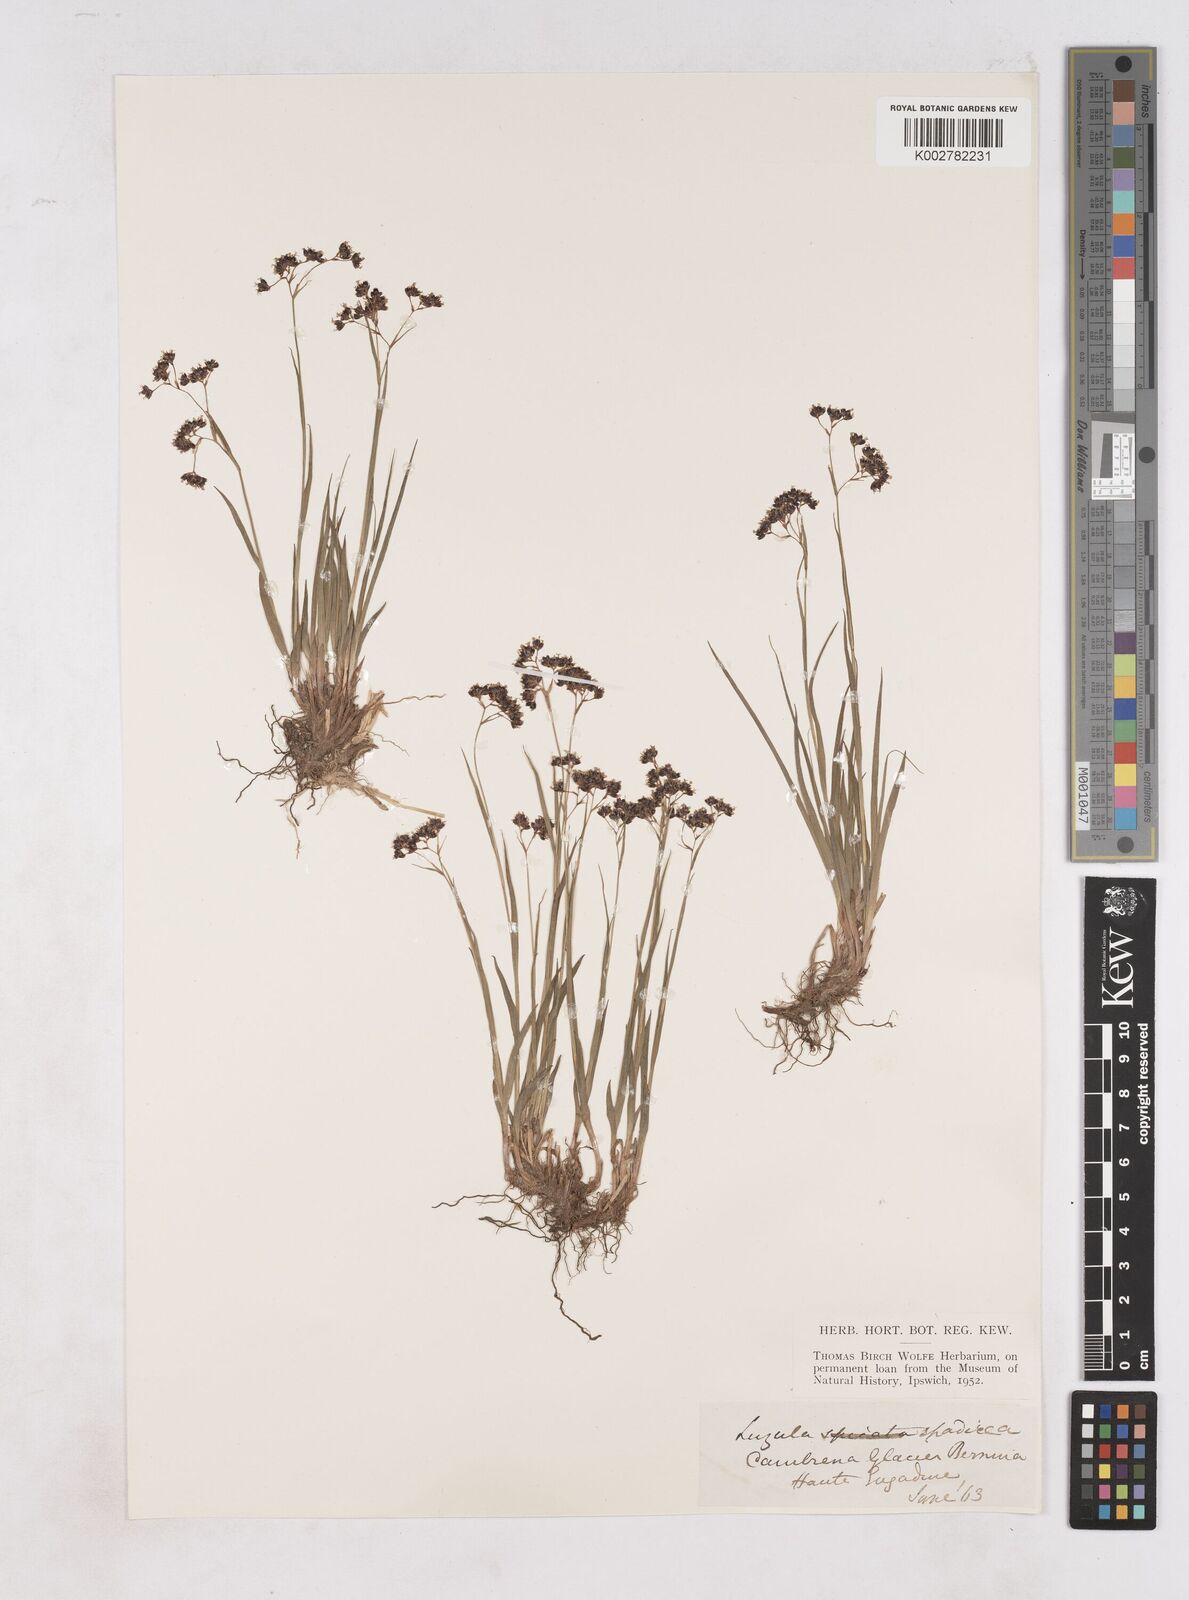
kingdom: Plantae
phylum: Tracheophyta
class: Liliopsida
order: Poales
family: Juncaceae
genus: Luzula
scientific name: Luzula alpinopilosa
